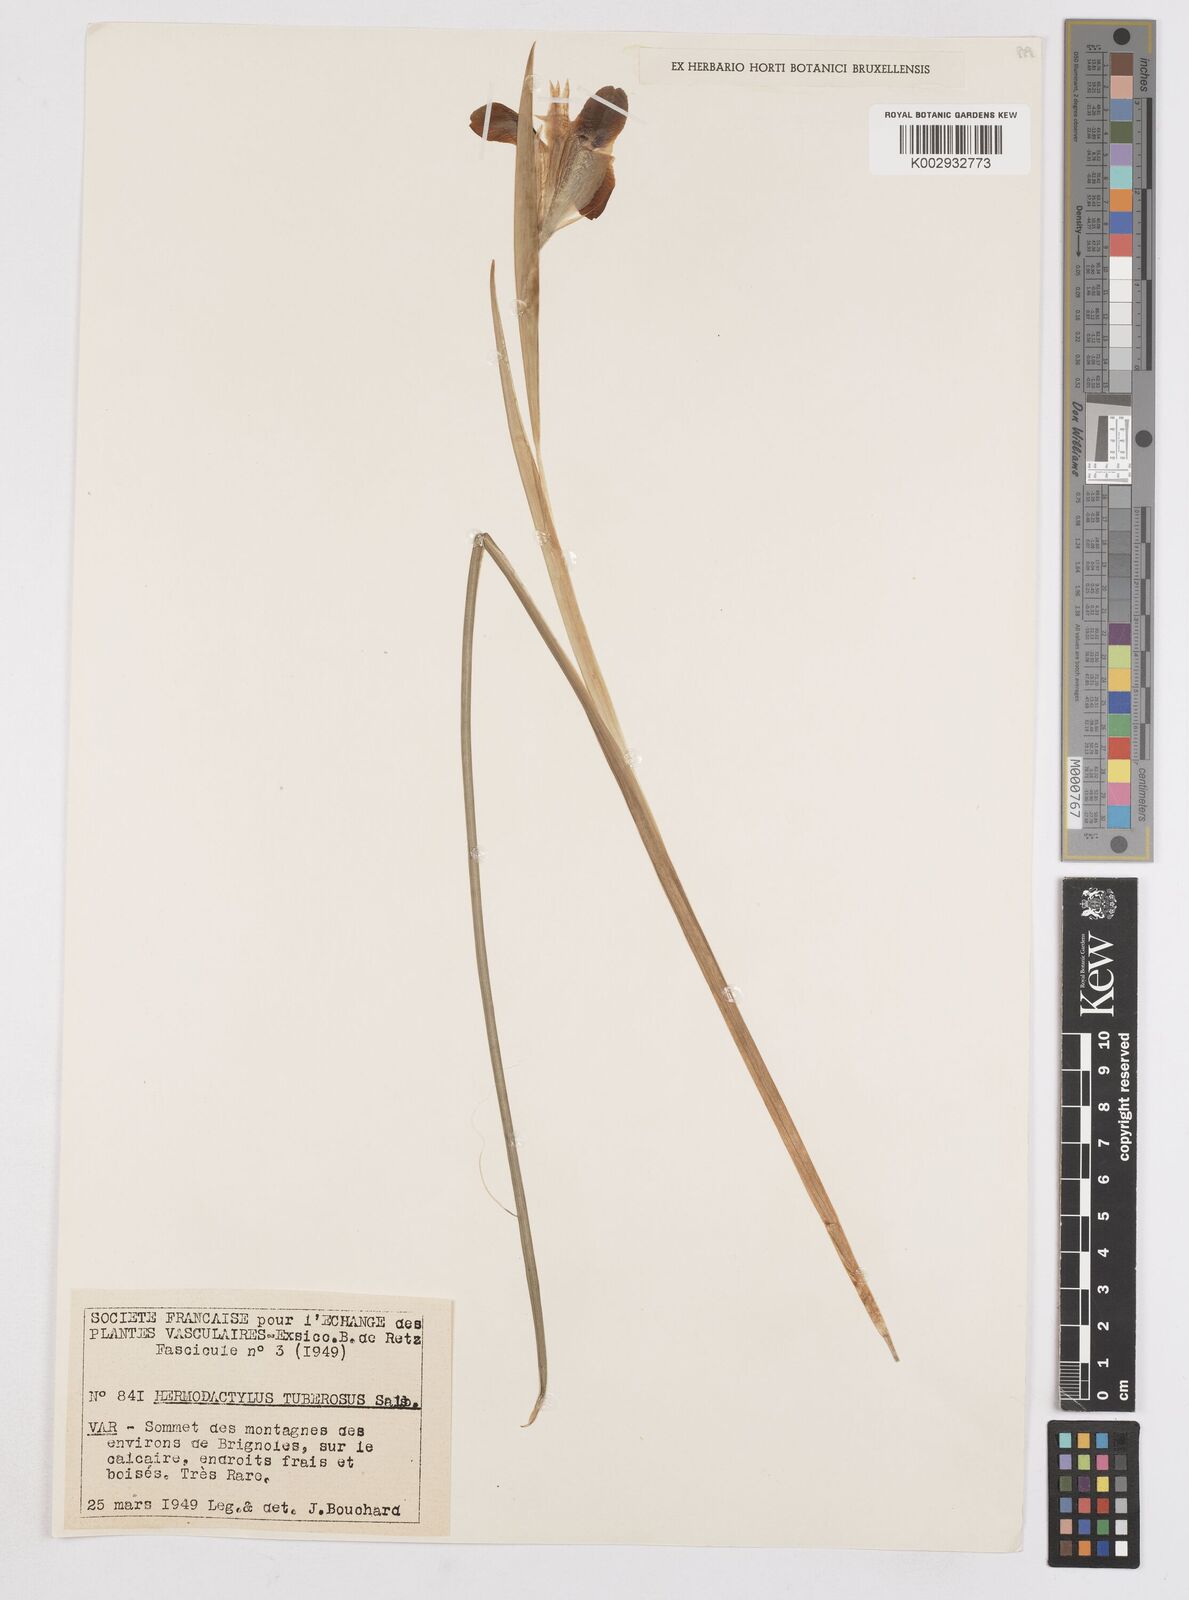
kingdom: Plantae
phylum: Tracheophyta
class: Liliopsida
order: Asparagales
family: Iridaceae
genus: Iris
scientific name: Iris tuberosa
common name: Snake's-head iris
